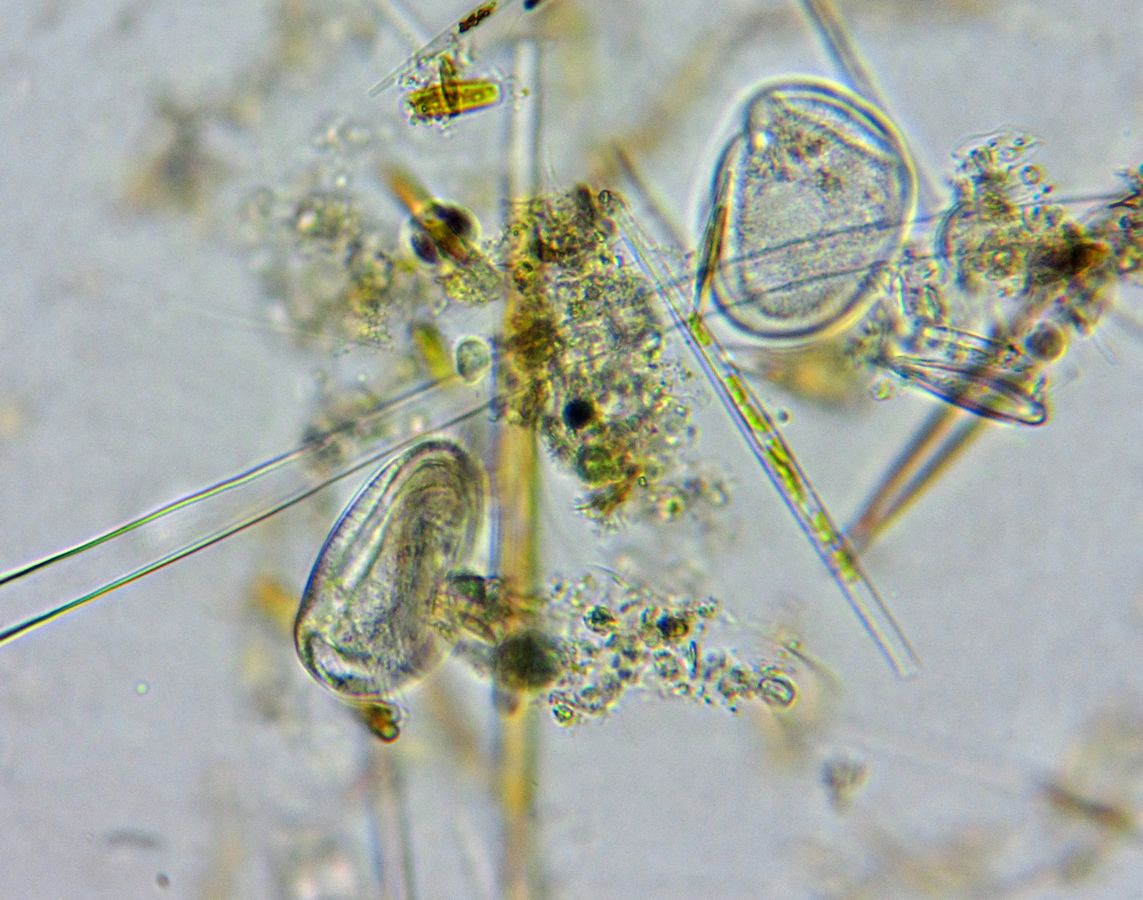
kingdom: Chromista
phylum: Ciliophora
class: Phyllopharyngea
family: Ephelotidae
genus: Ephelota
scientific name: Ephelota mammillata
